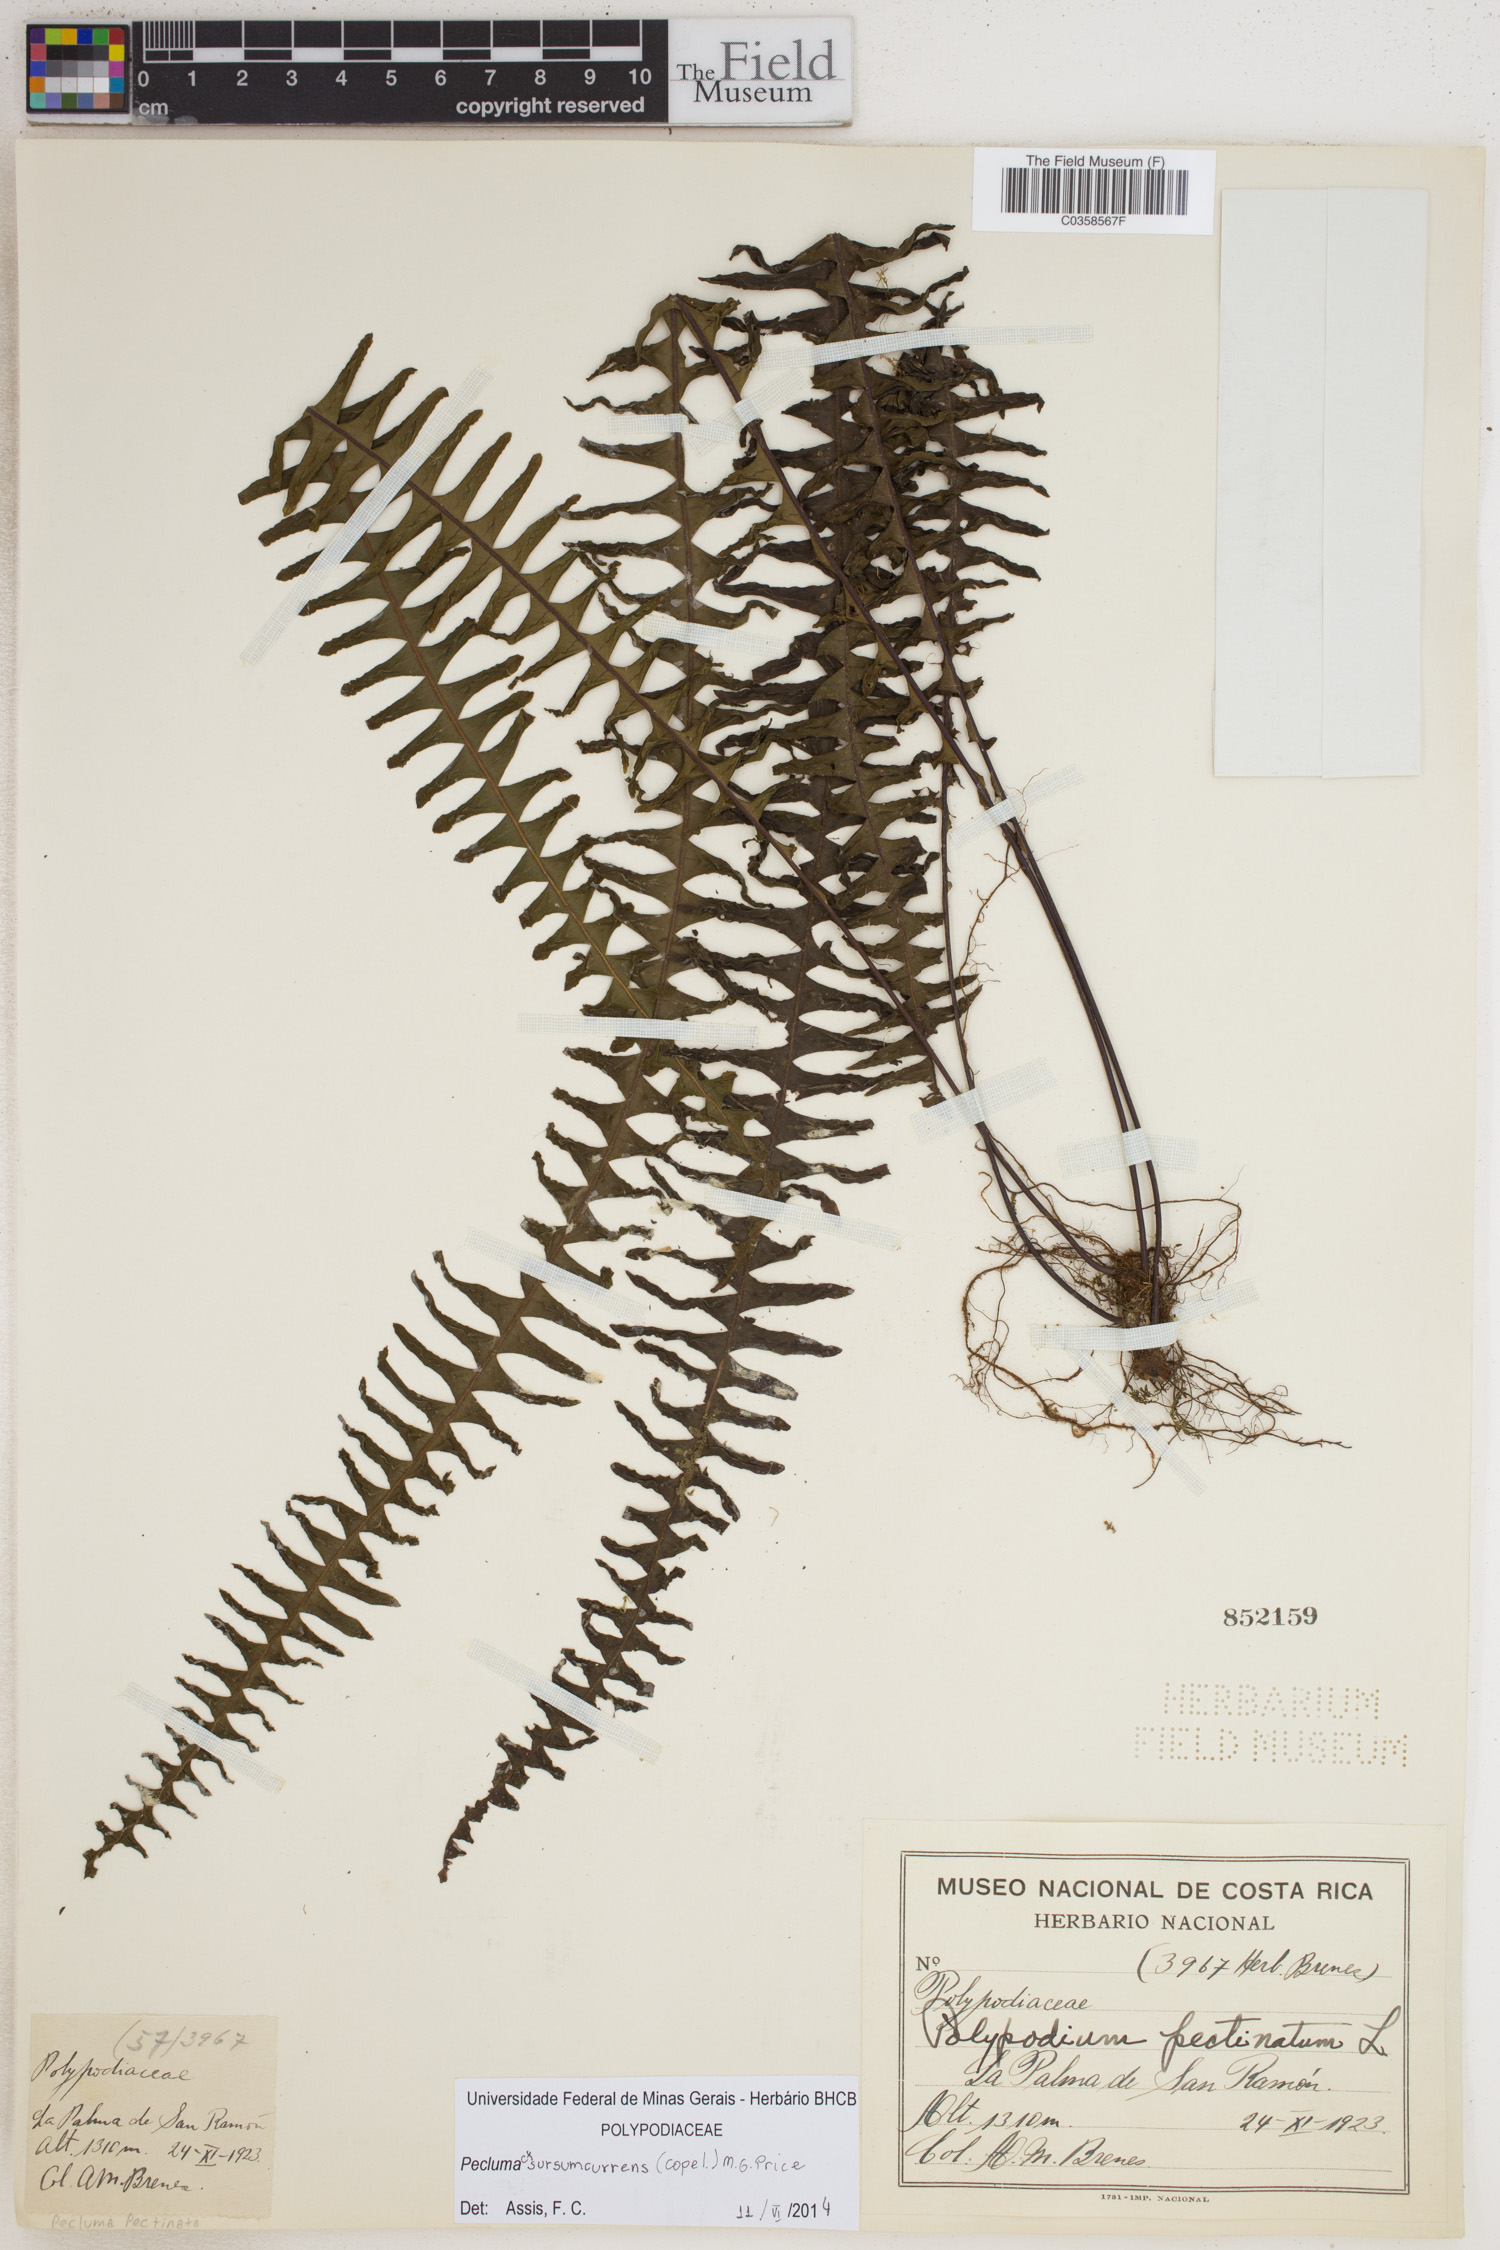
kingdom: Plantae
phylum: Tracheophyta
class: Polypodiopsida
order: Polypodiales
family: Polypodiaceae
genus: Pecluma
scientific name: Pecluma sursumcurrens
